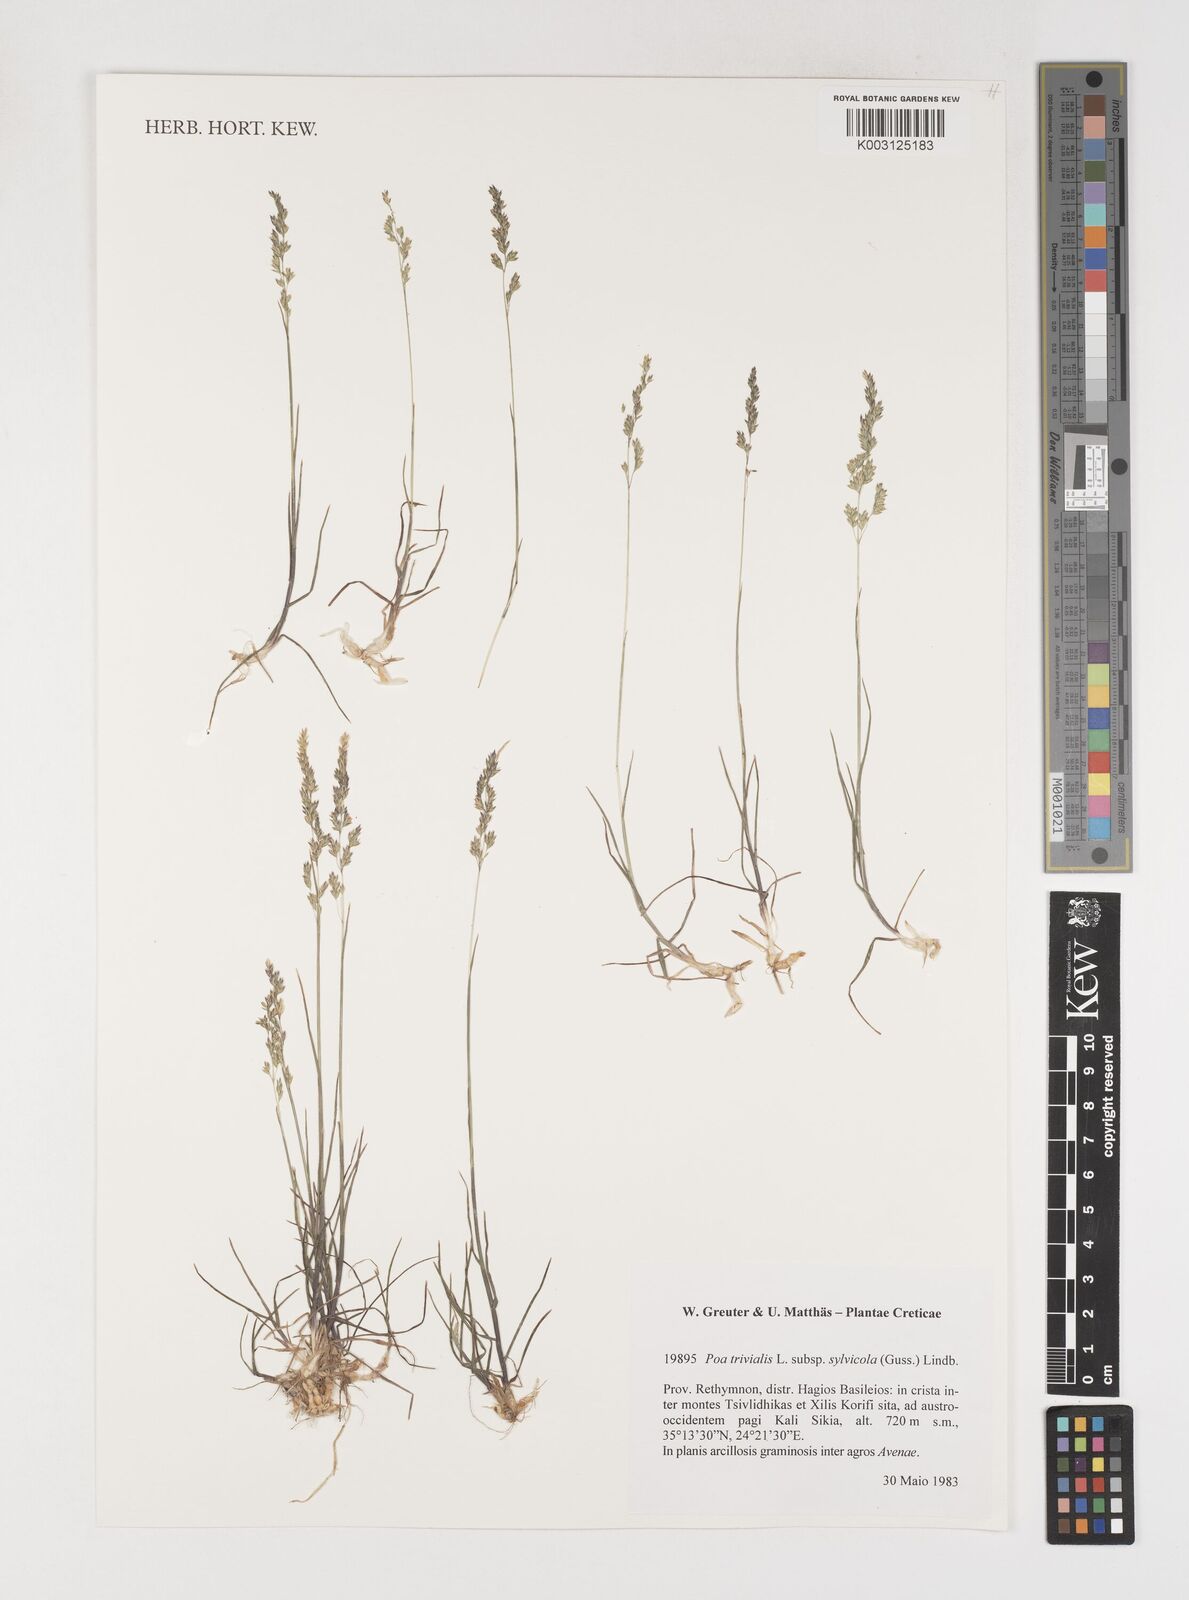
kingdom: Plantae
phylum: Tracheophyta
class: Liliopsida
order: Poales
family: Poaceae
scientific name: Poaceae
